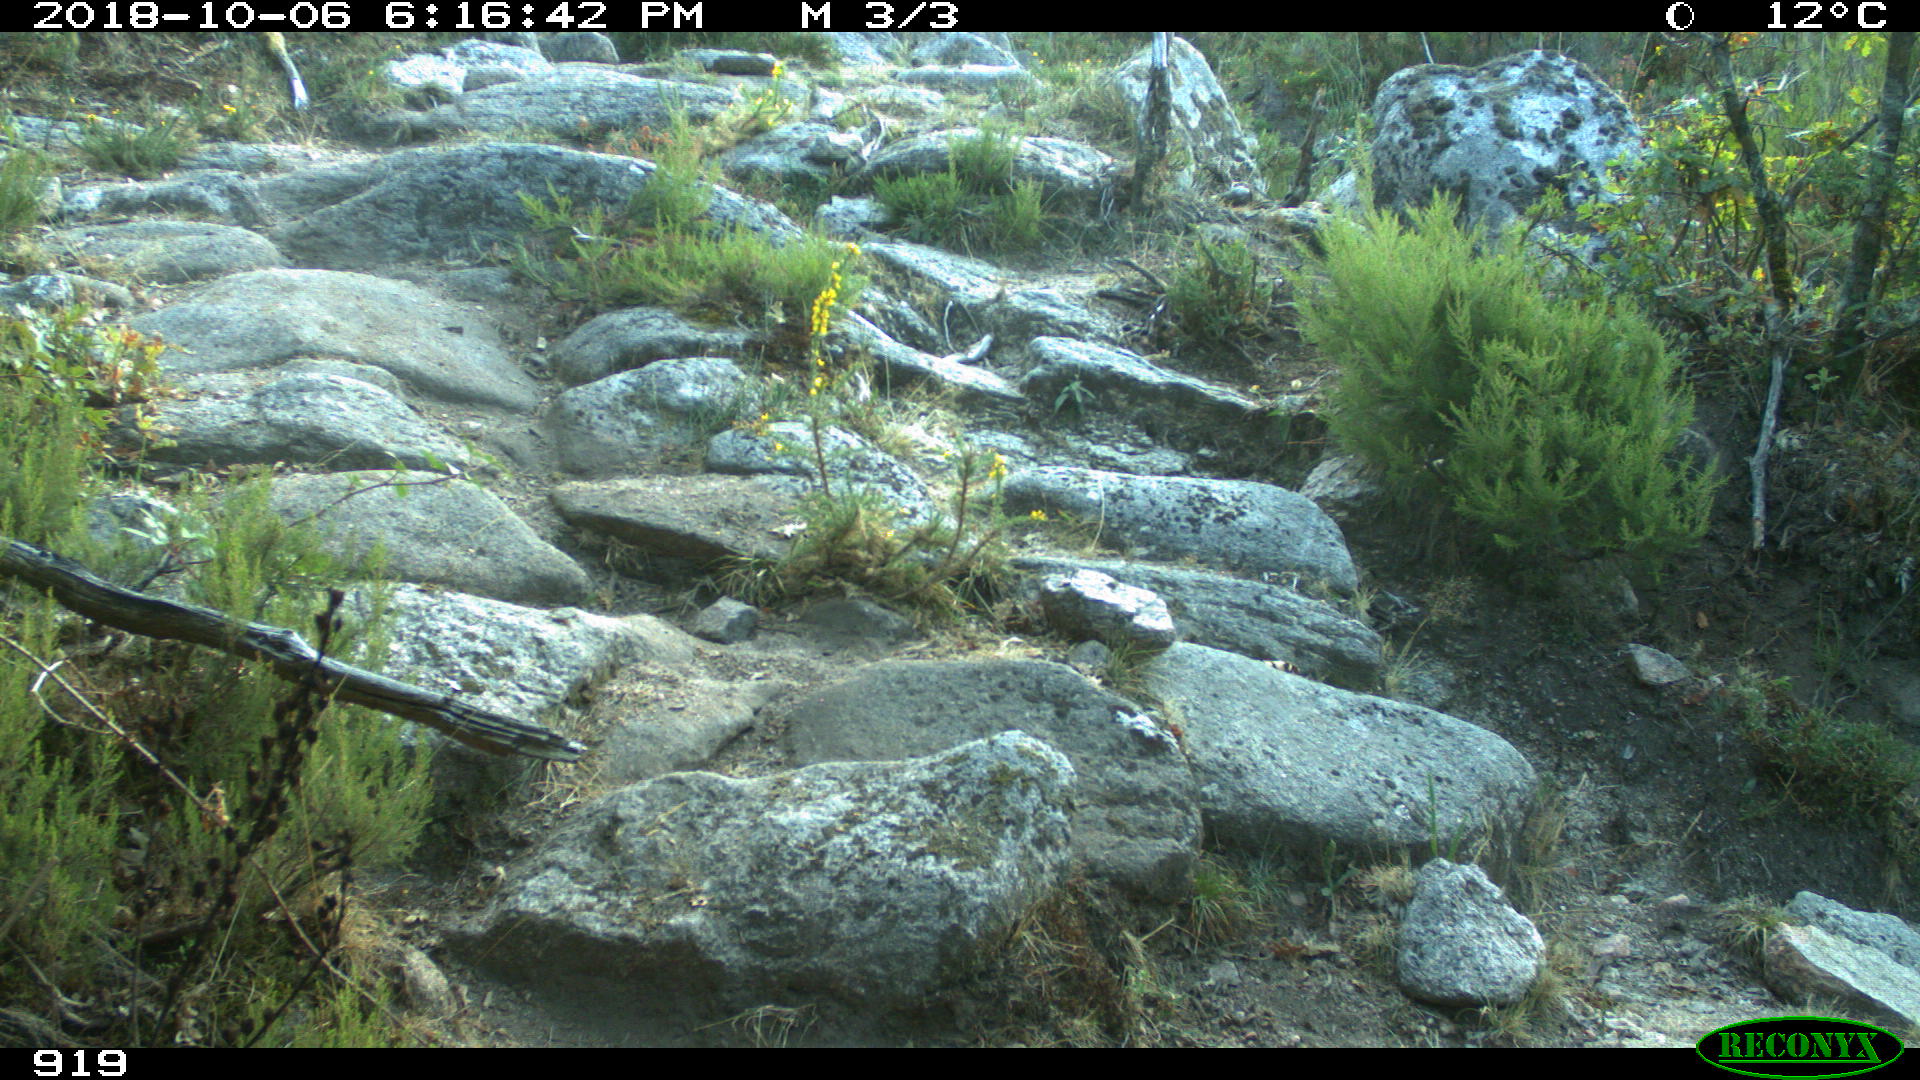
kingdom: Animalia
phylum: Chordata
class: Mammalia
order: Artiodactyla
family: Bovidae
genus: Bos
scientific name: Bos taurus
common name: Domesticated cattle
